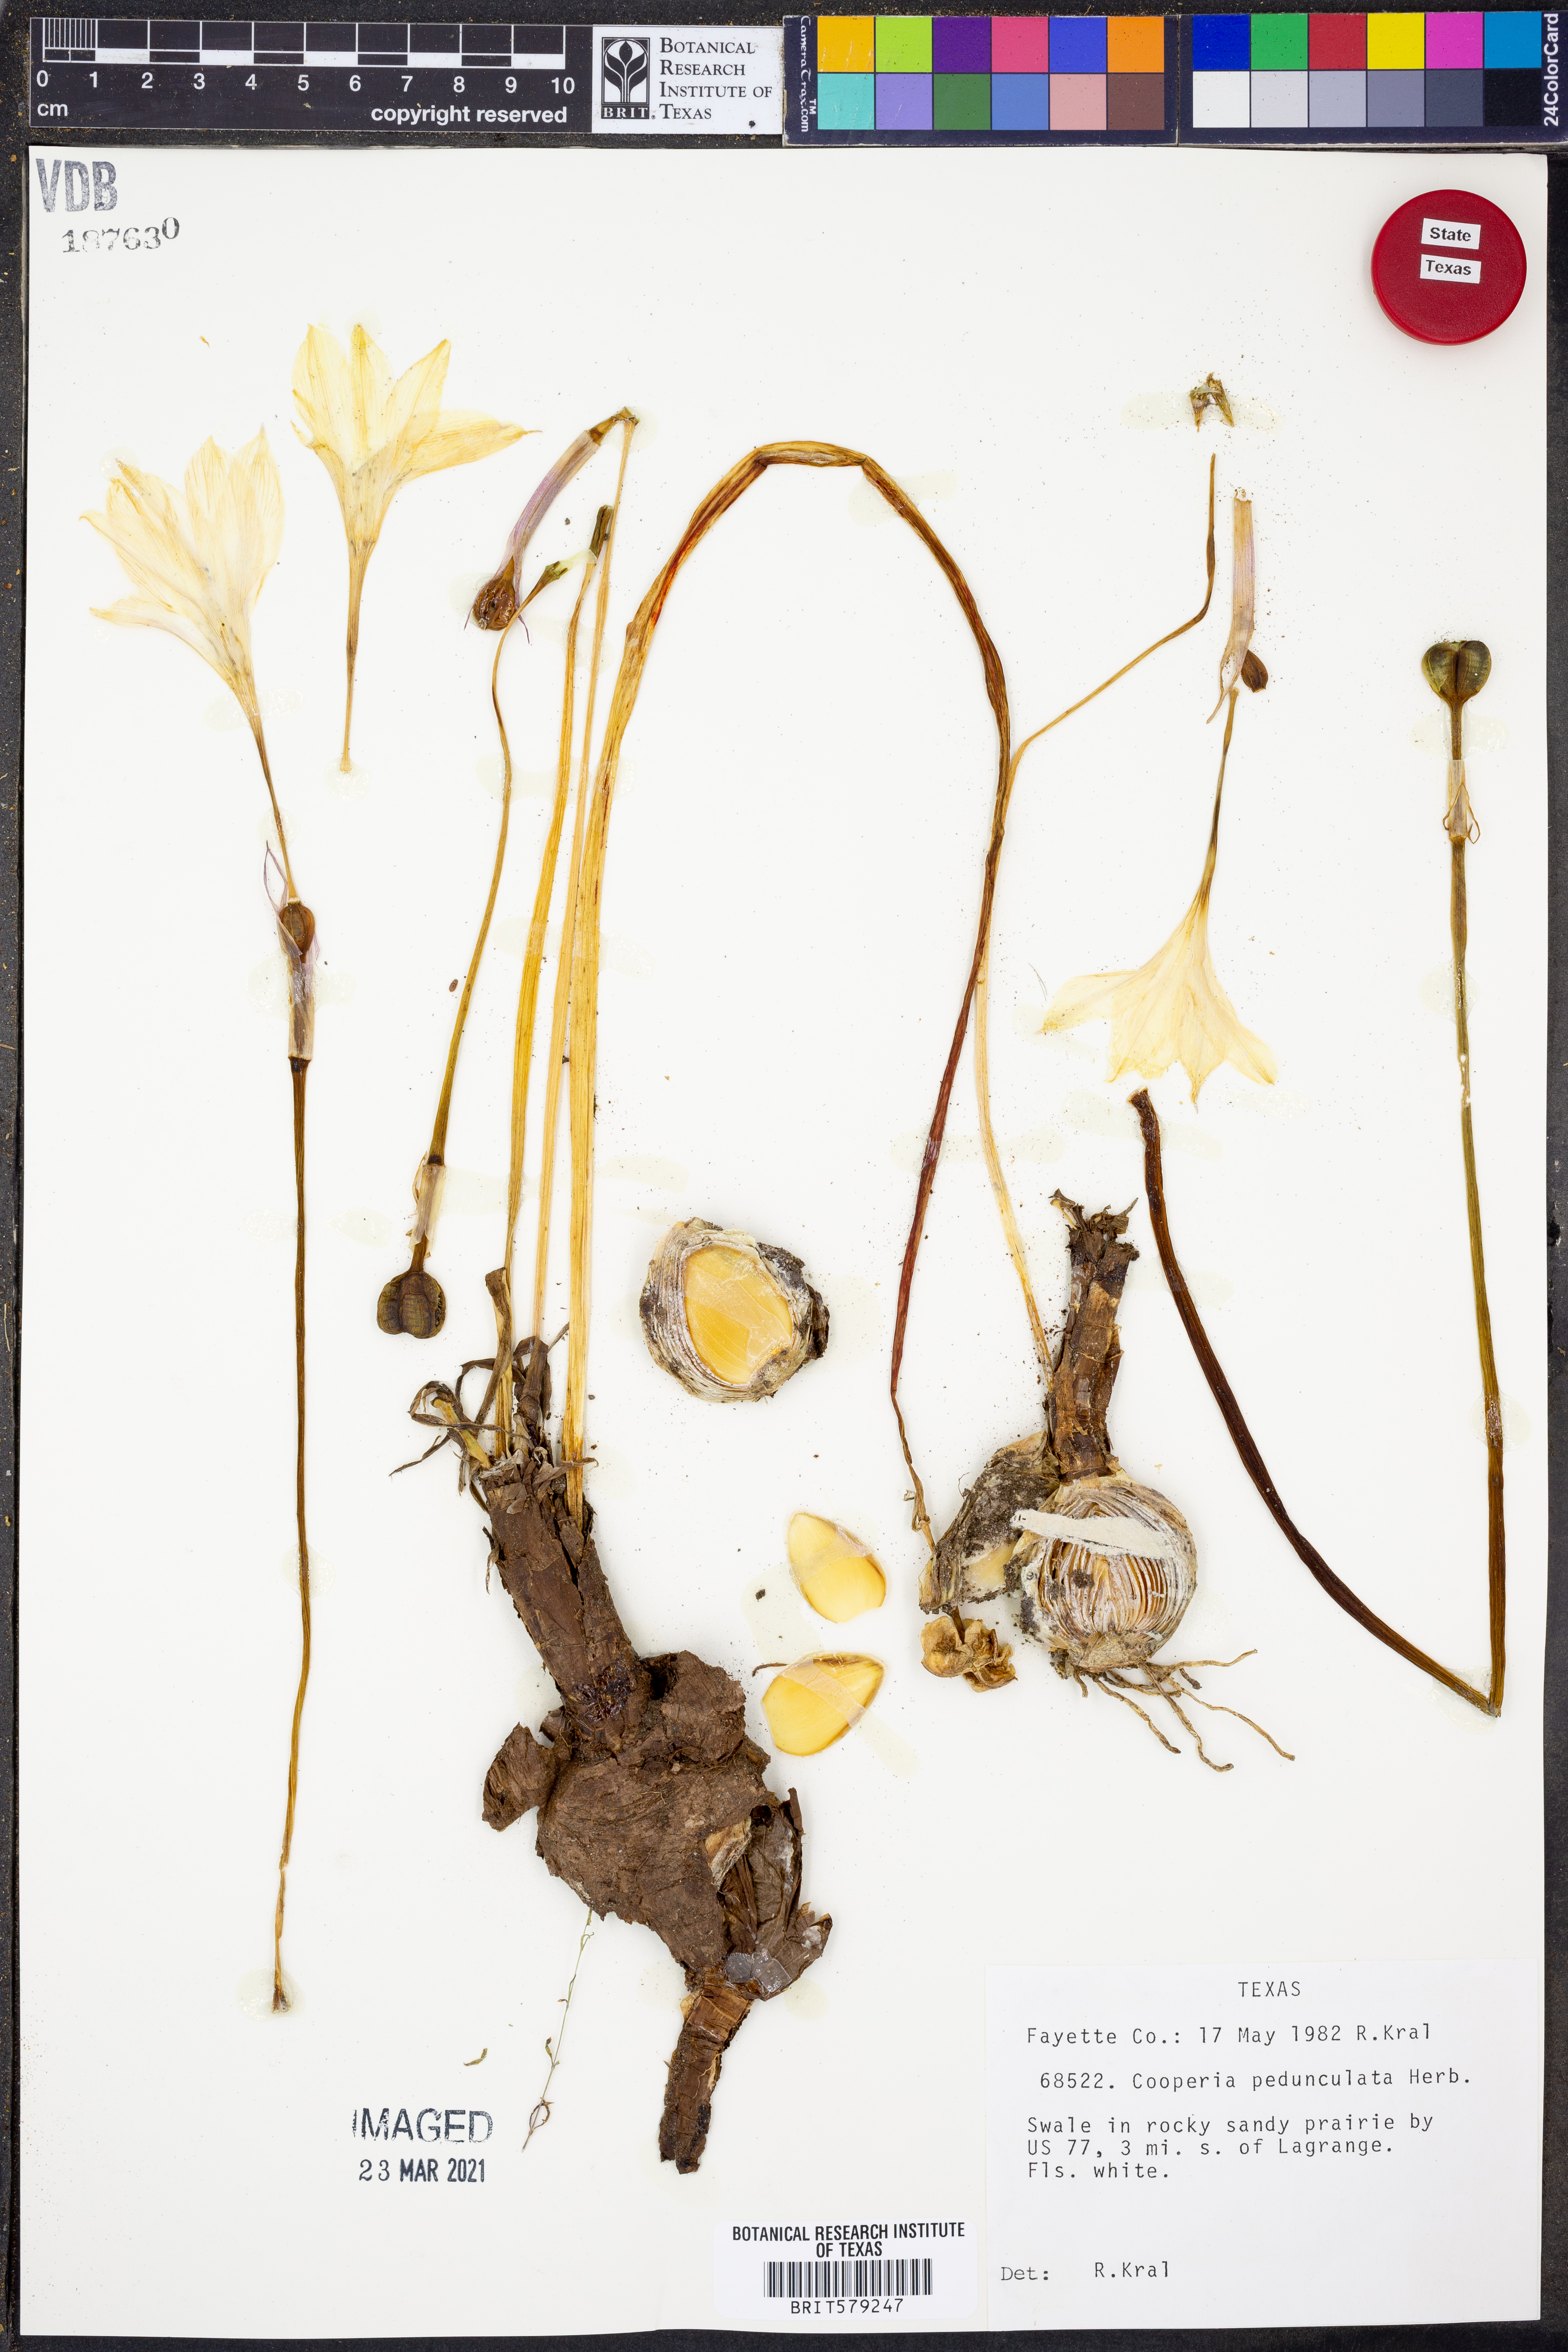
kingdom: Plantae
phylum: Tracheophyta
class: Liliopsida
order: Asparagales
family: Amaryllidaceae
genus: Zephyranthes
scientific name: Zephyranthes drummondii
